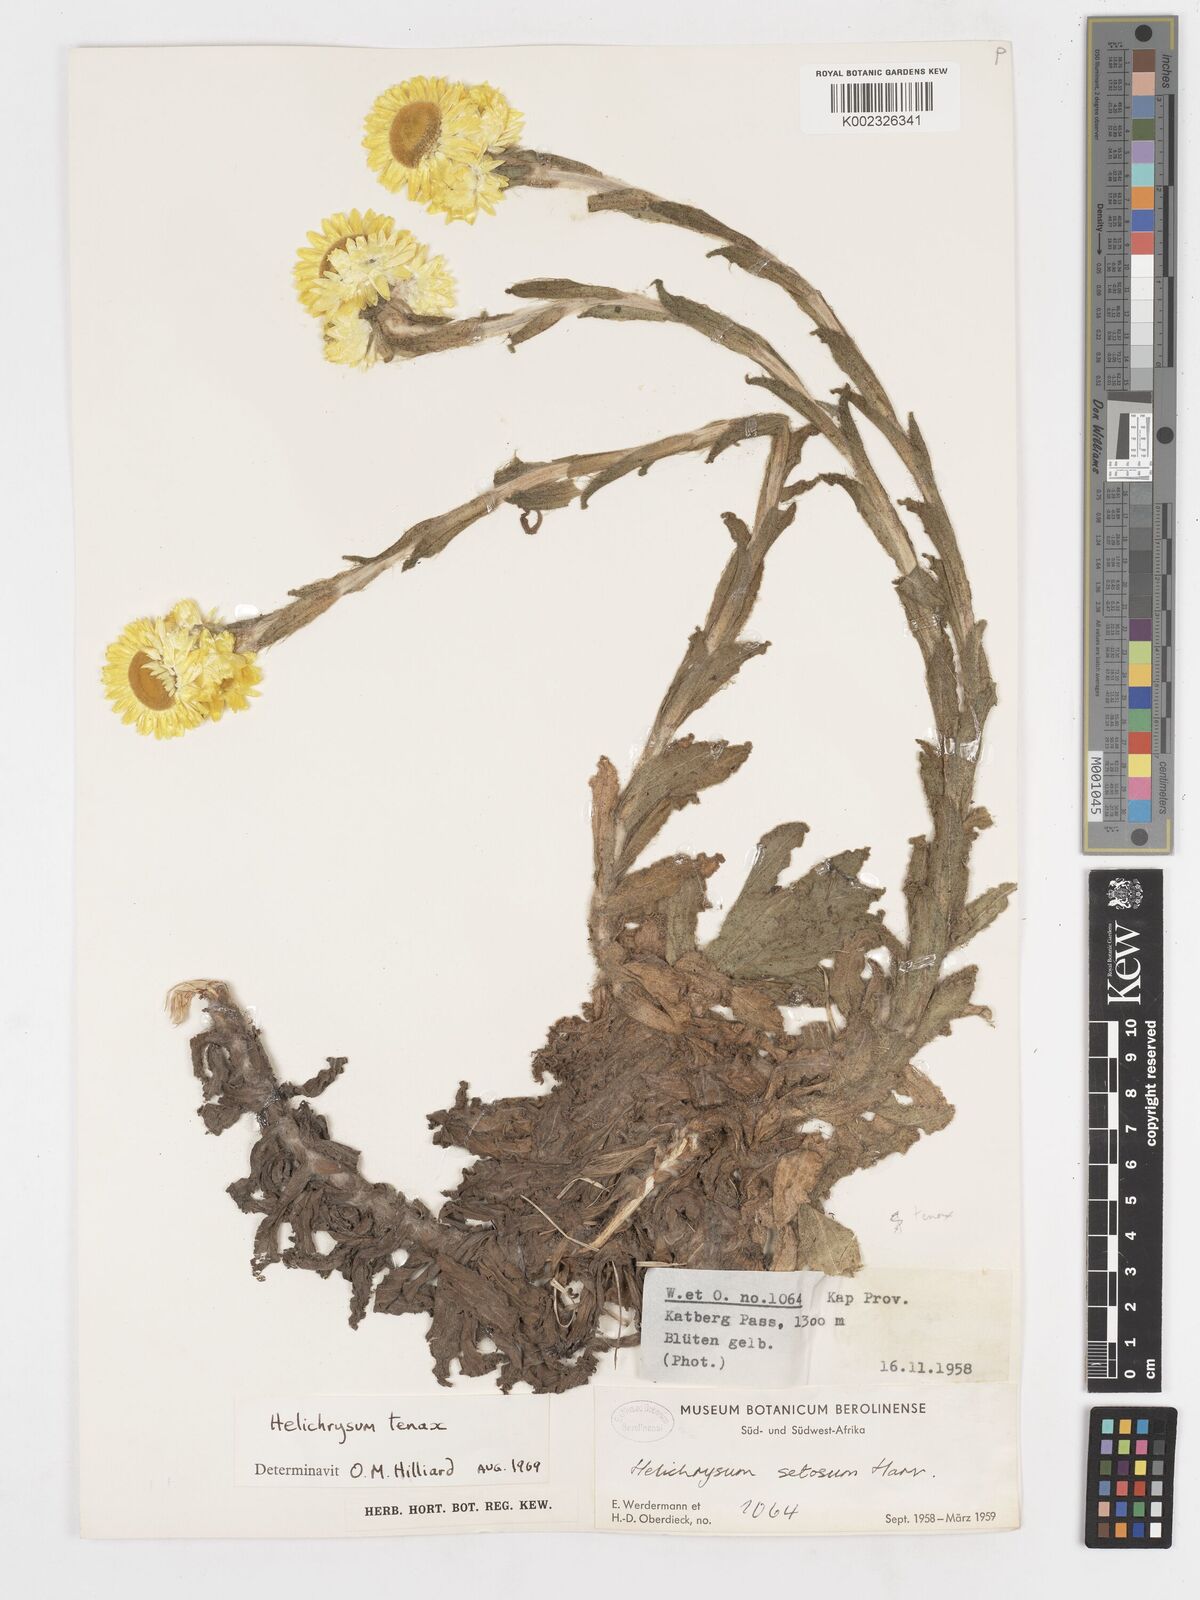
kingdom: Plantae
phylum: Tracheophyta
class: Magnoliopsida
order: Asterales
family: Asteraceae
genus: Helichrysum
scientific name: Helichrysum tenax
